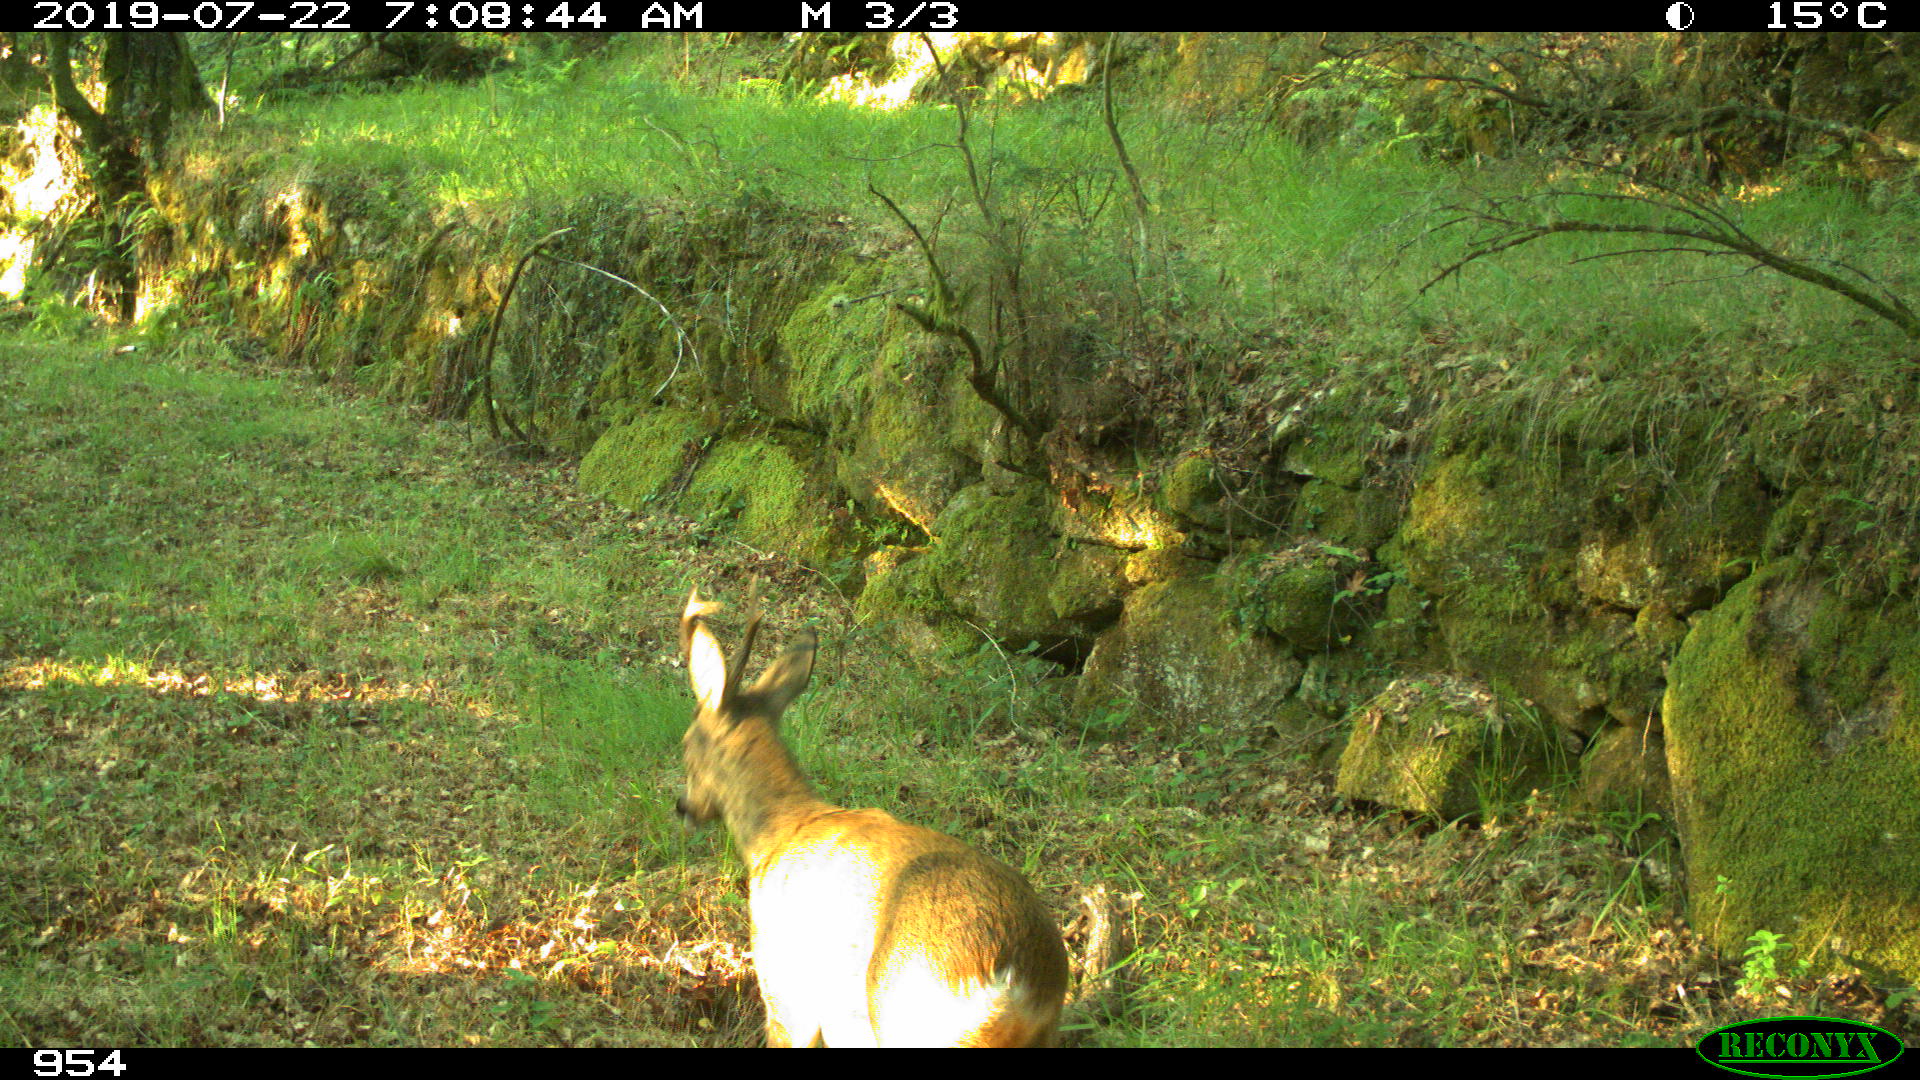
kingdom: Animalia
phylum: Chordata
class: Mammalia
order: Artiodactyla
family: Cervidae
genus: Capreolus
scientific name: Capreolus capreolus
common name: Western roe deer
